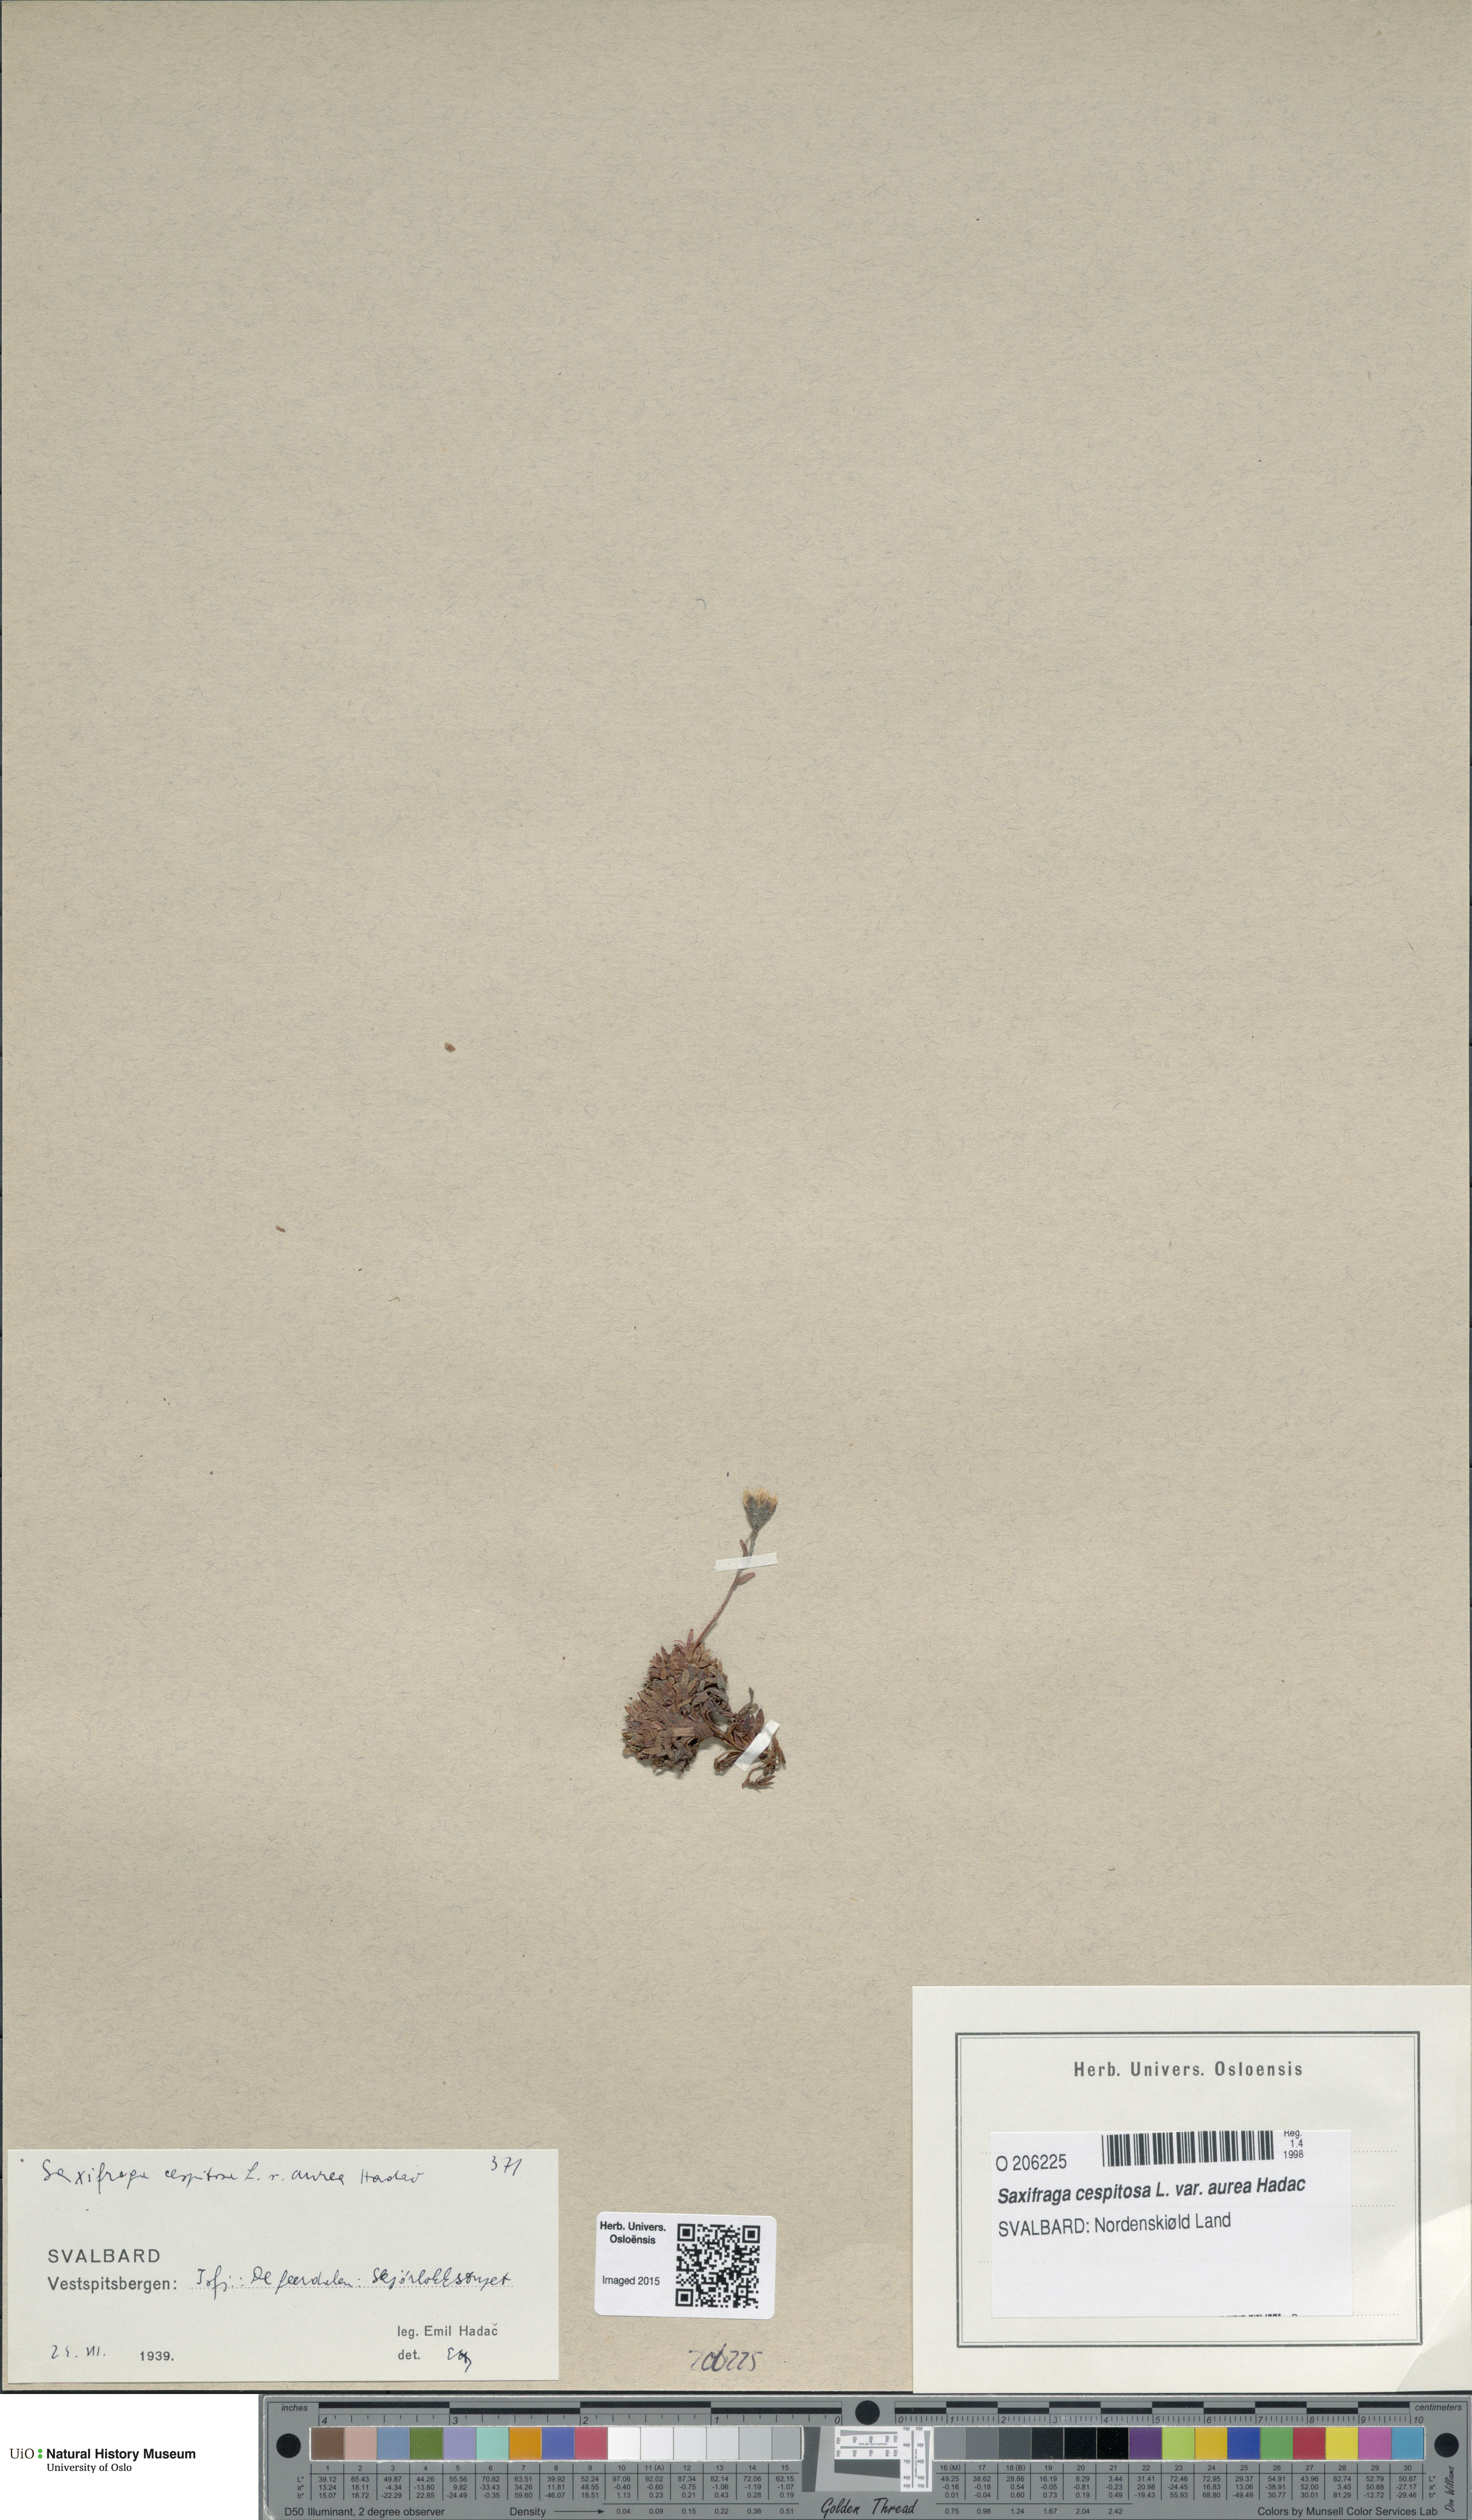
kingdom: Plantae
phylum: Tracheophyta
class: Magnoliopsida
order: Saxifragales
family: Saxifragaceae
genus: Saxifraga
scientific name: Saxifraga cespitosa
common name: Tufted saxifrage
